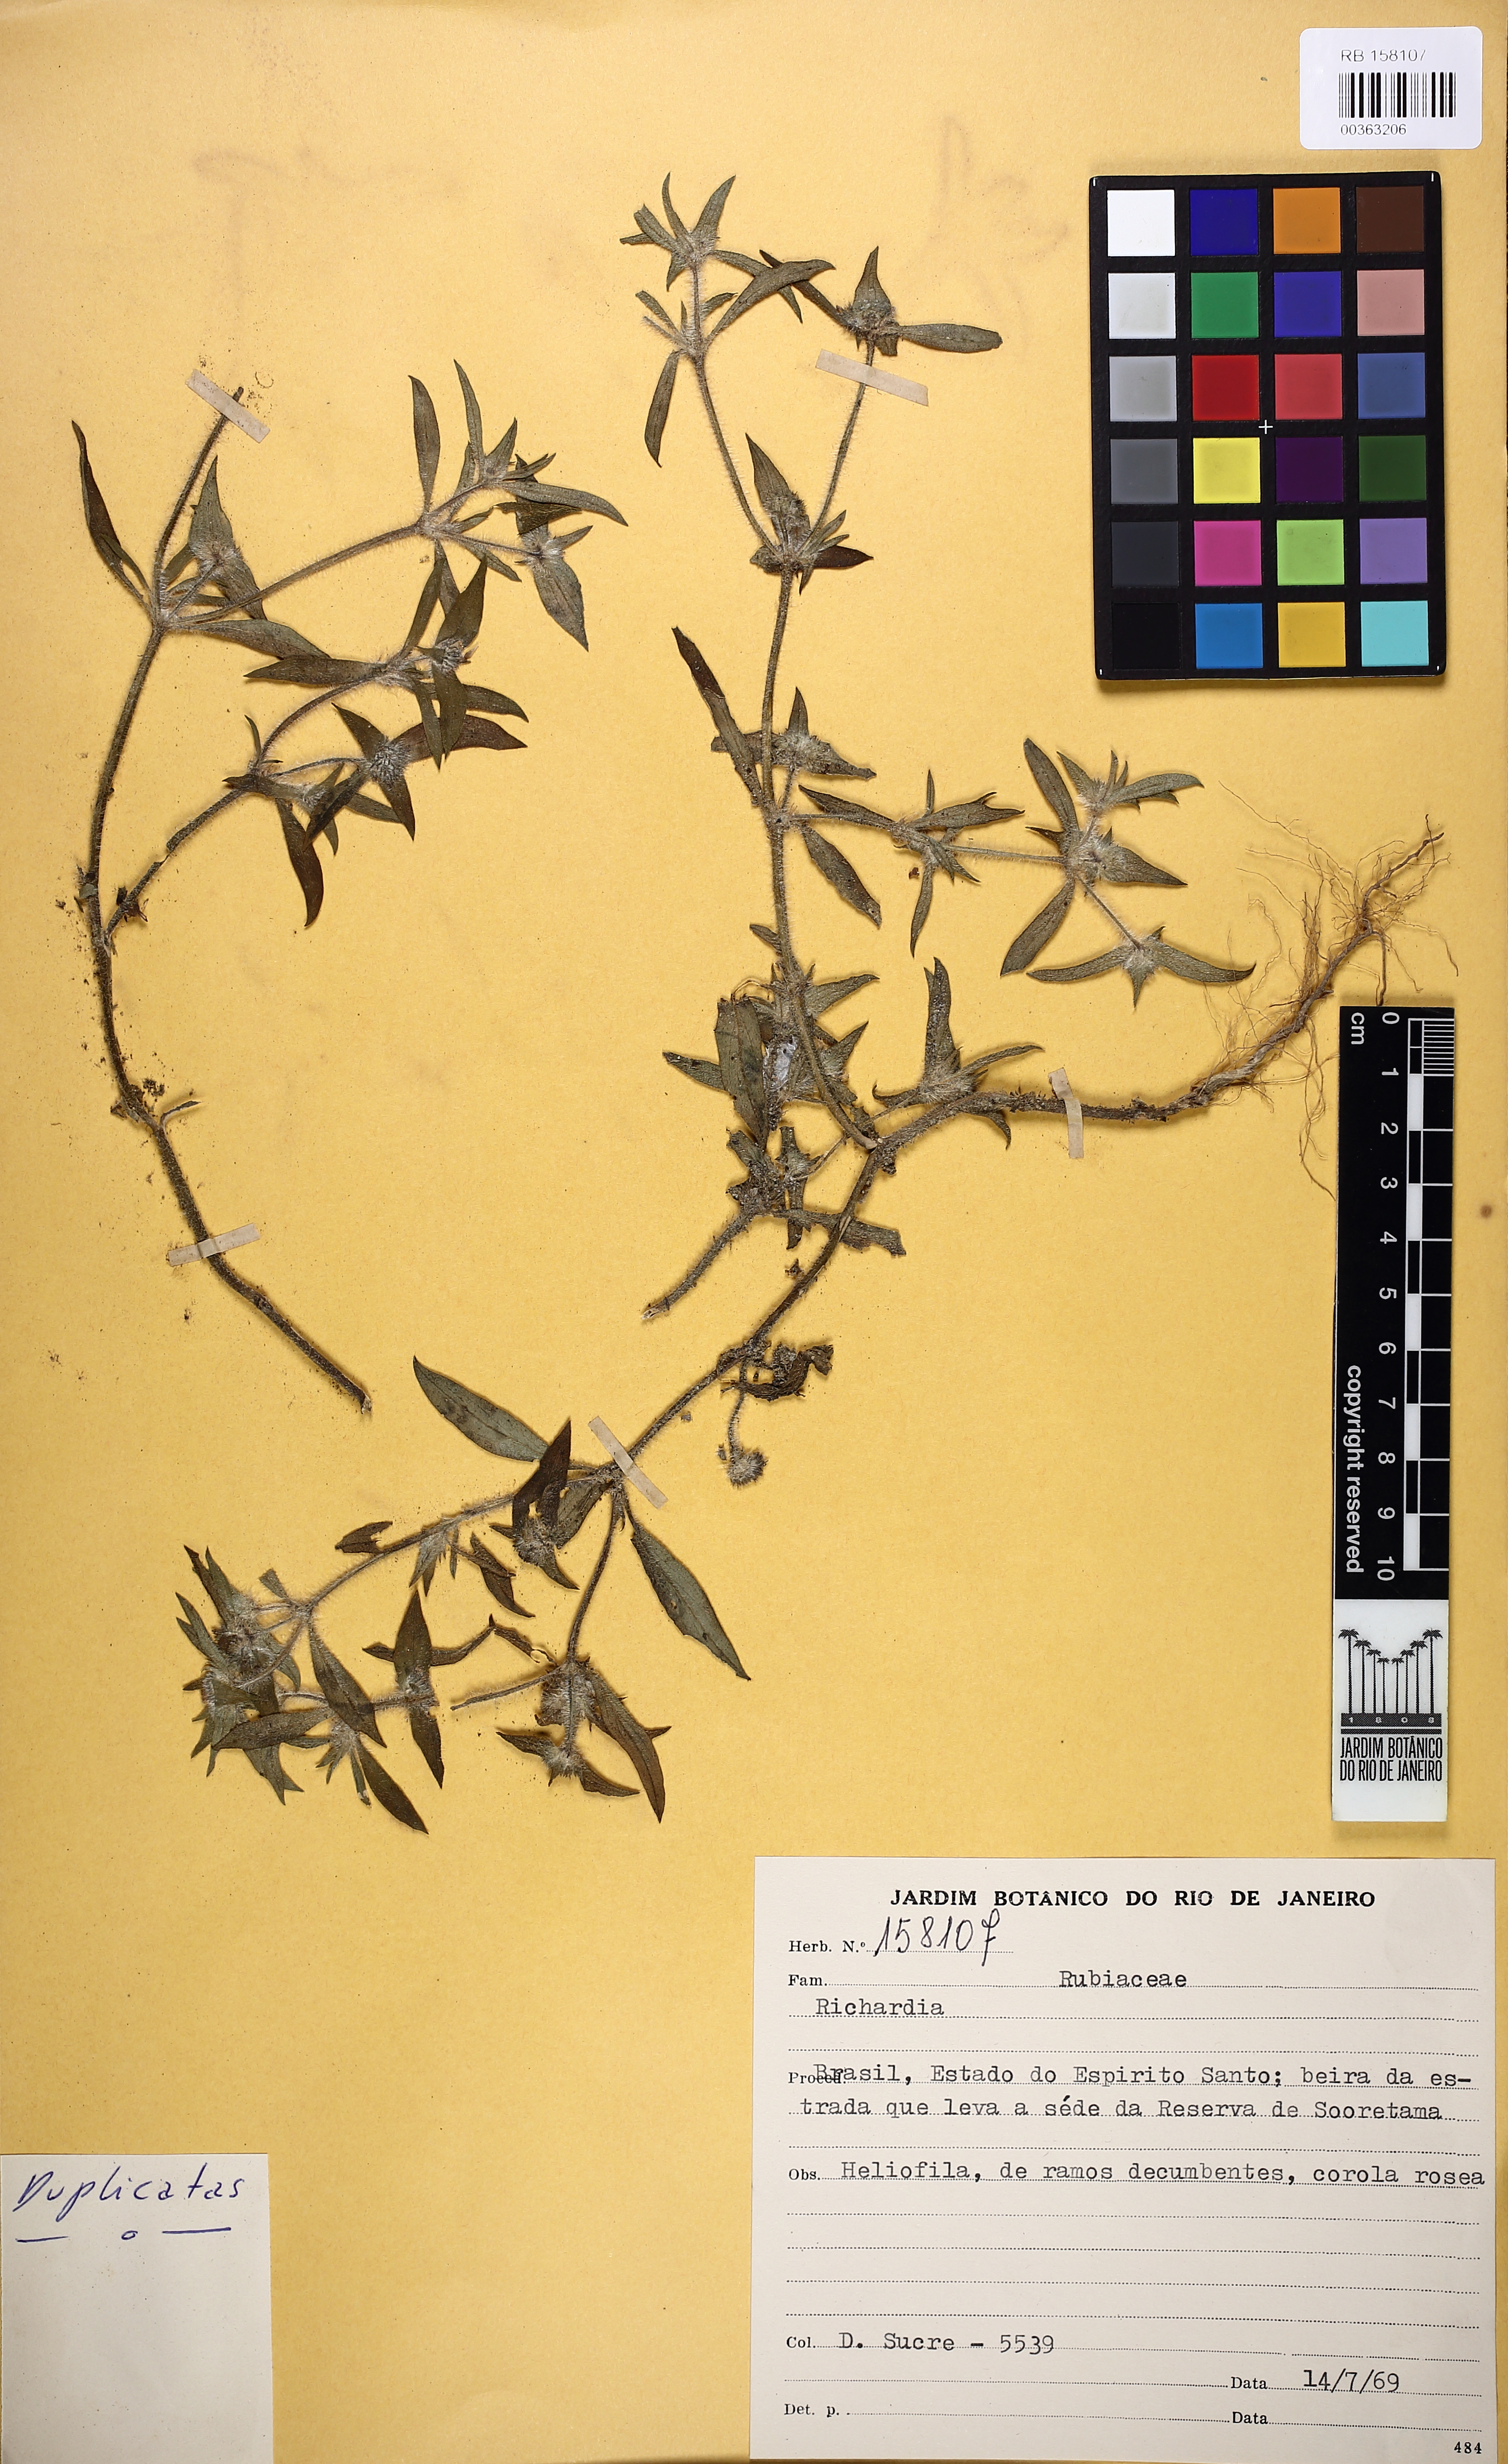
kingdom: Plantae
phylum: Tracheophyta
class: Magnoliopsida
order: Gentianales
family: Rubiaceae
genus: Richardia
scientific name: Richardia
